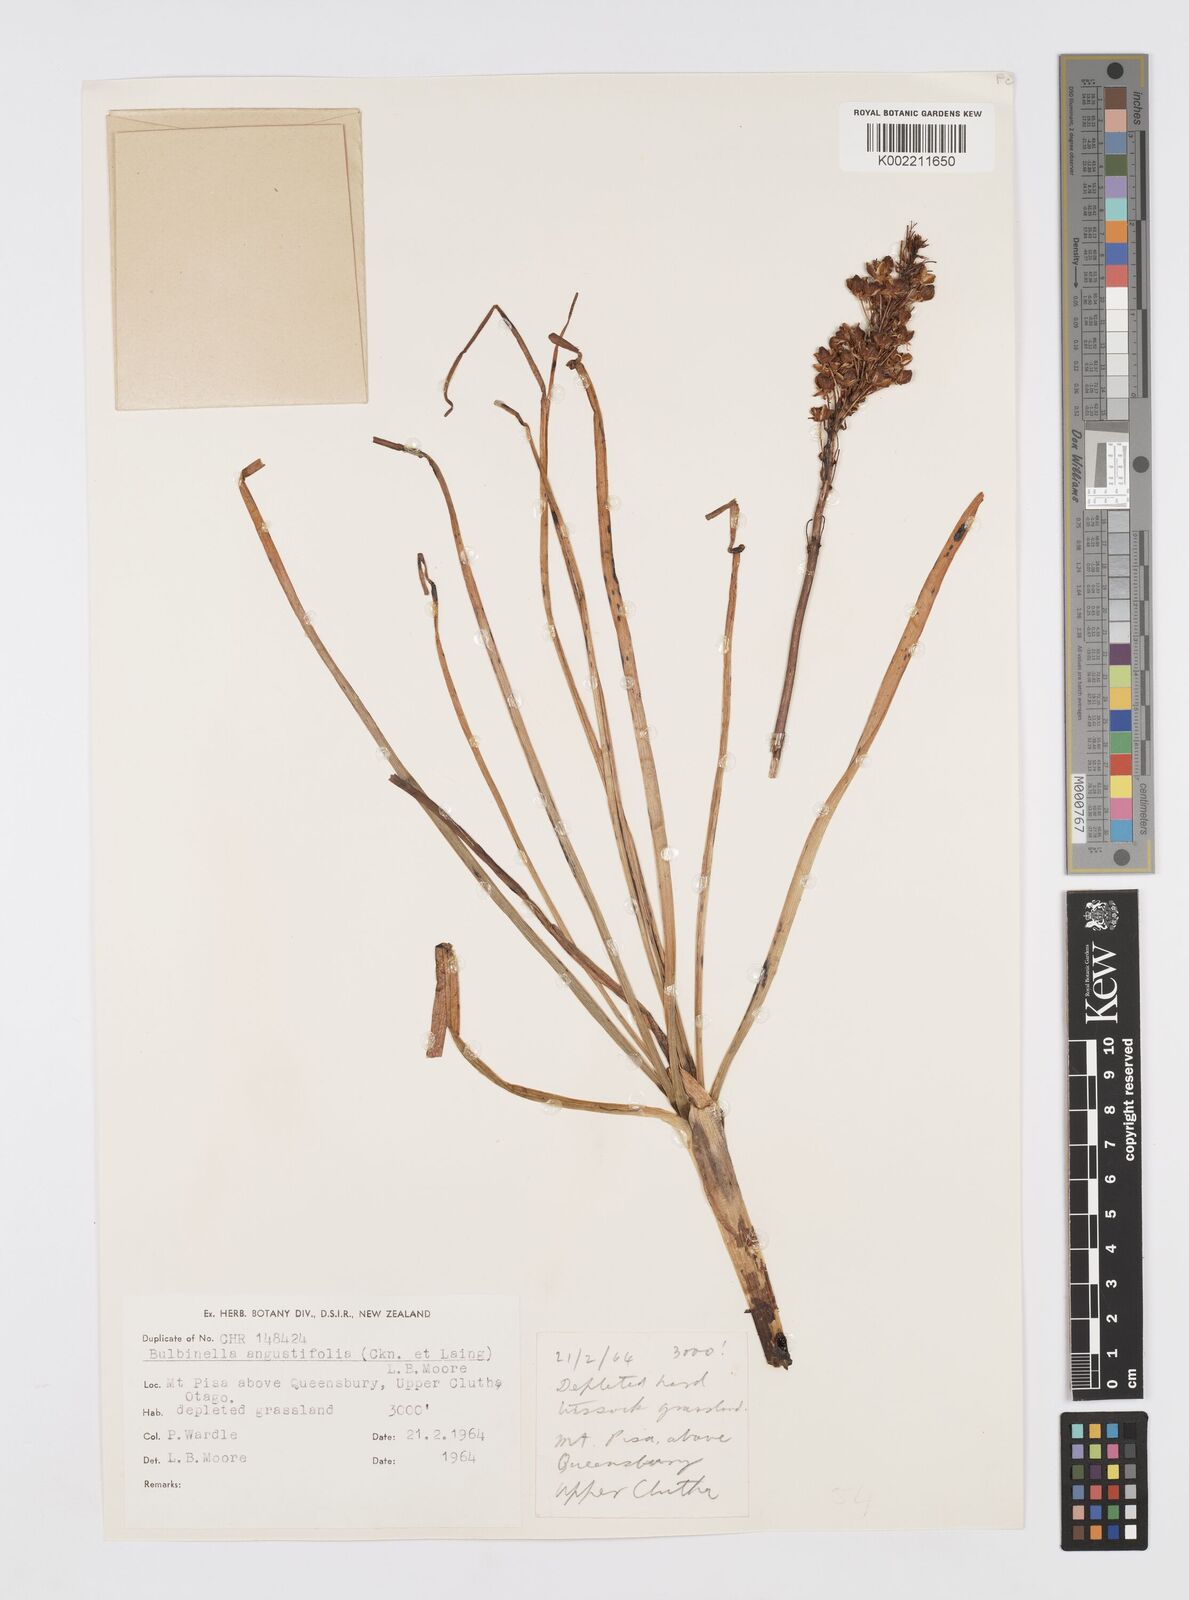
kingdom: Plantae
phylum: Tracheophyta
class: Liliopsida
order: Asparagales
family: Asphodelaceae
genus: Bulbinella
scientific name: Bulbinella angustifolia
